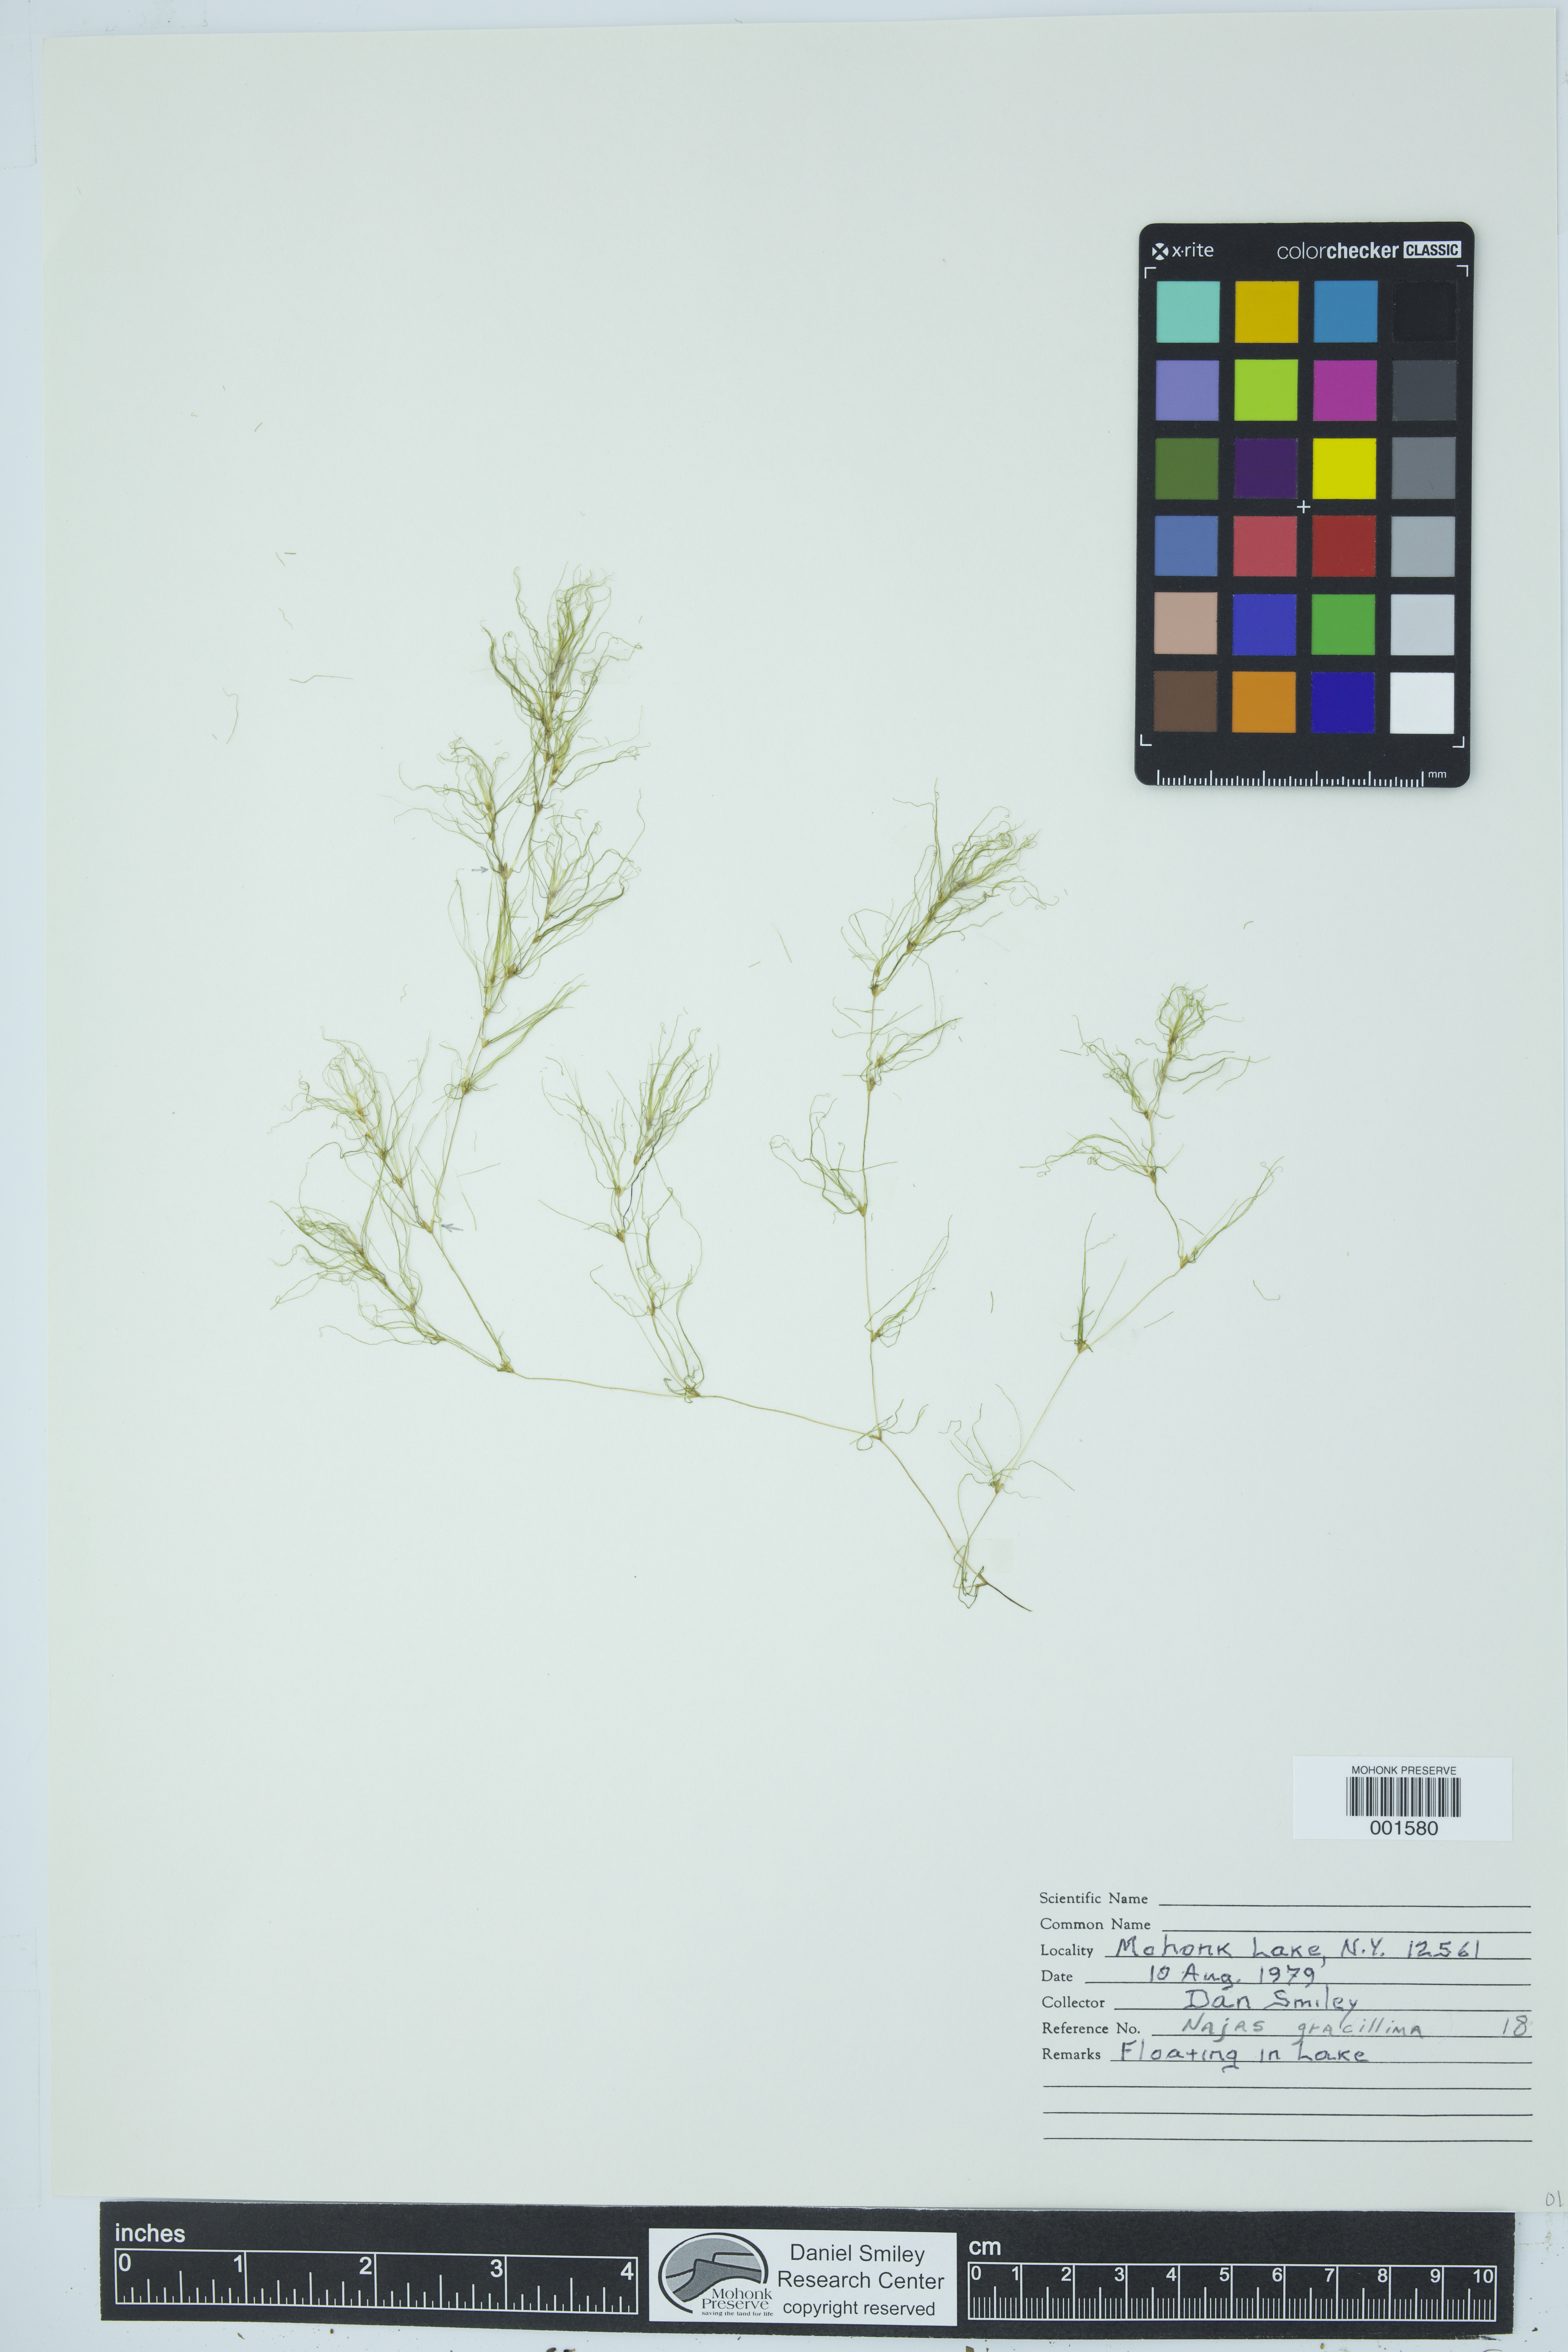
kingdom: Animalia
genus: Naja
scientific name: Naja
